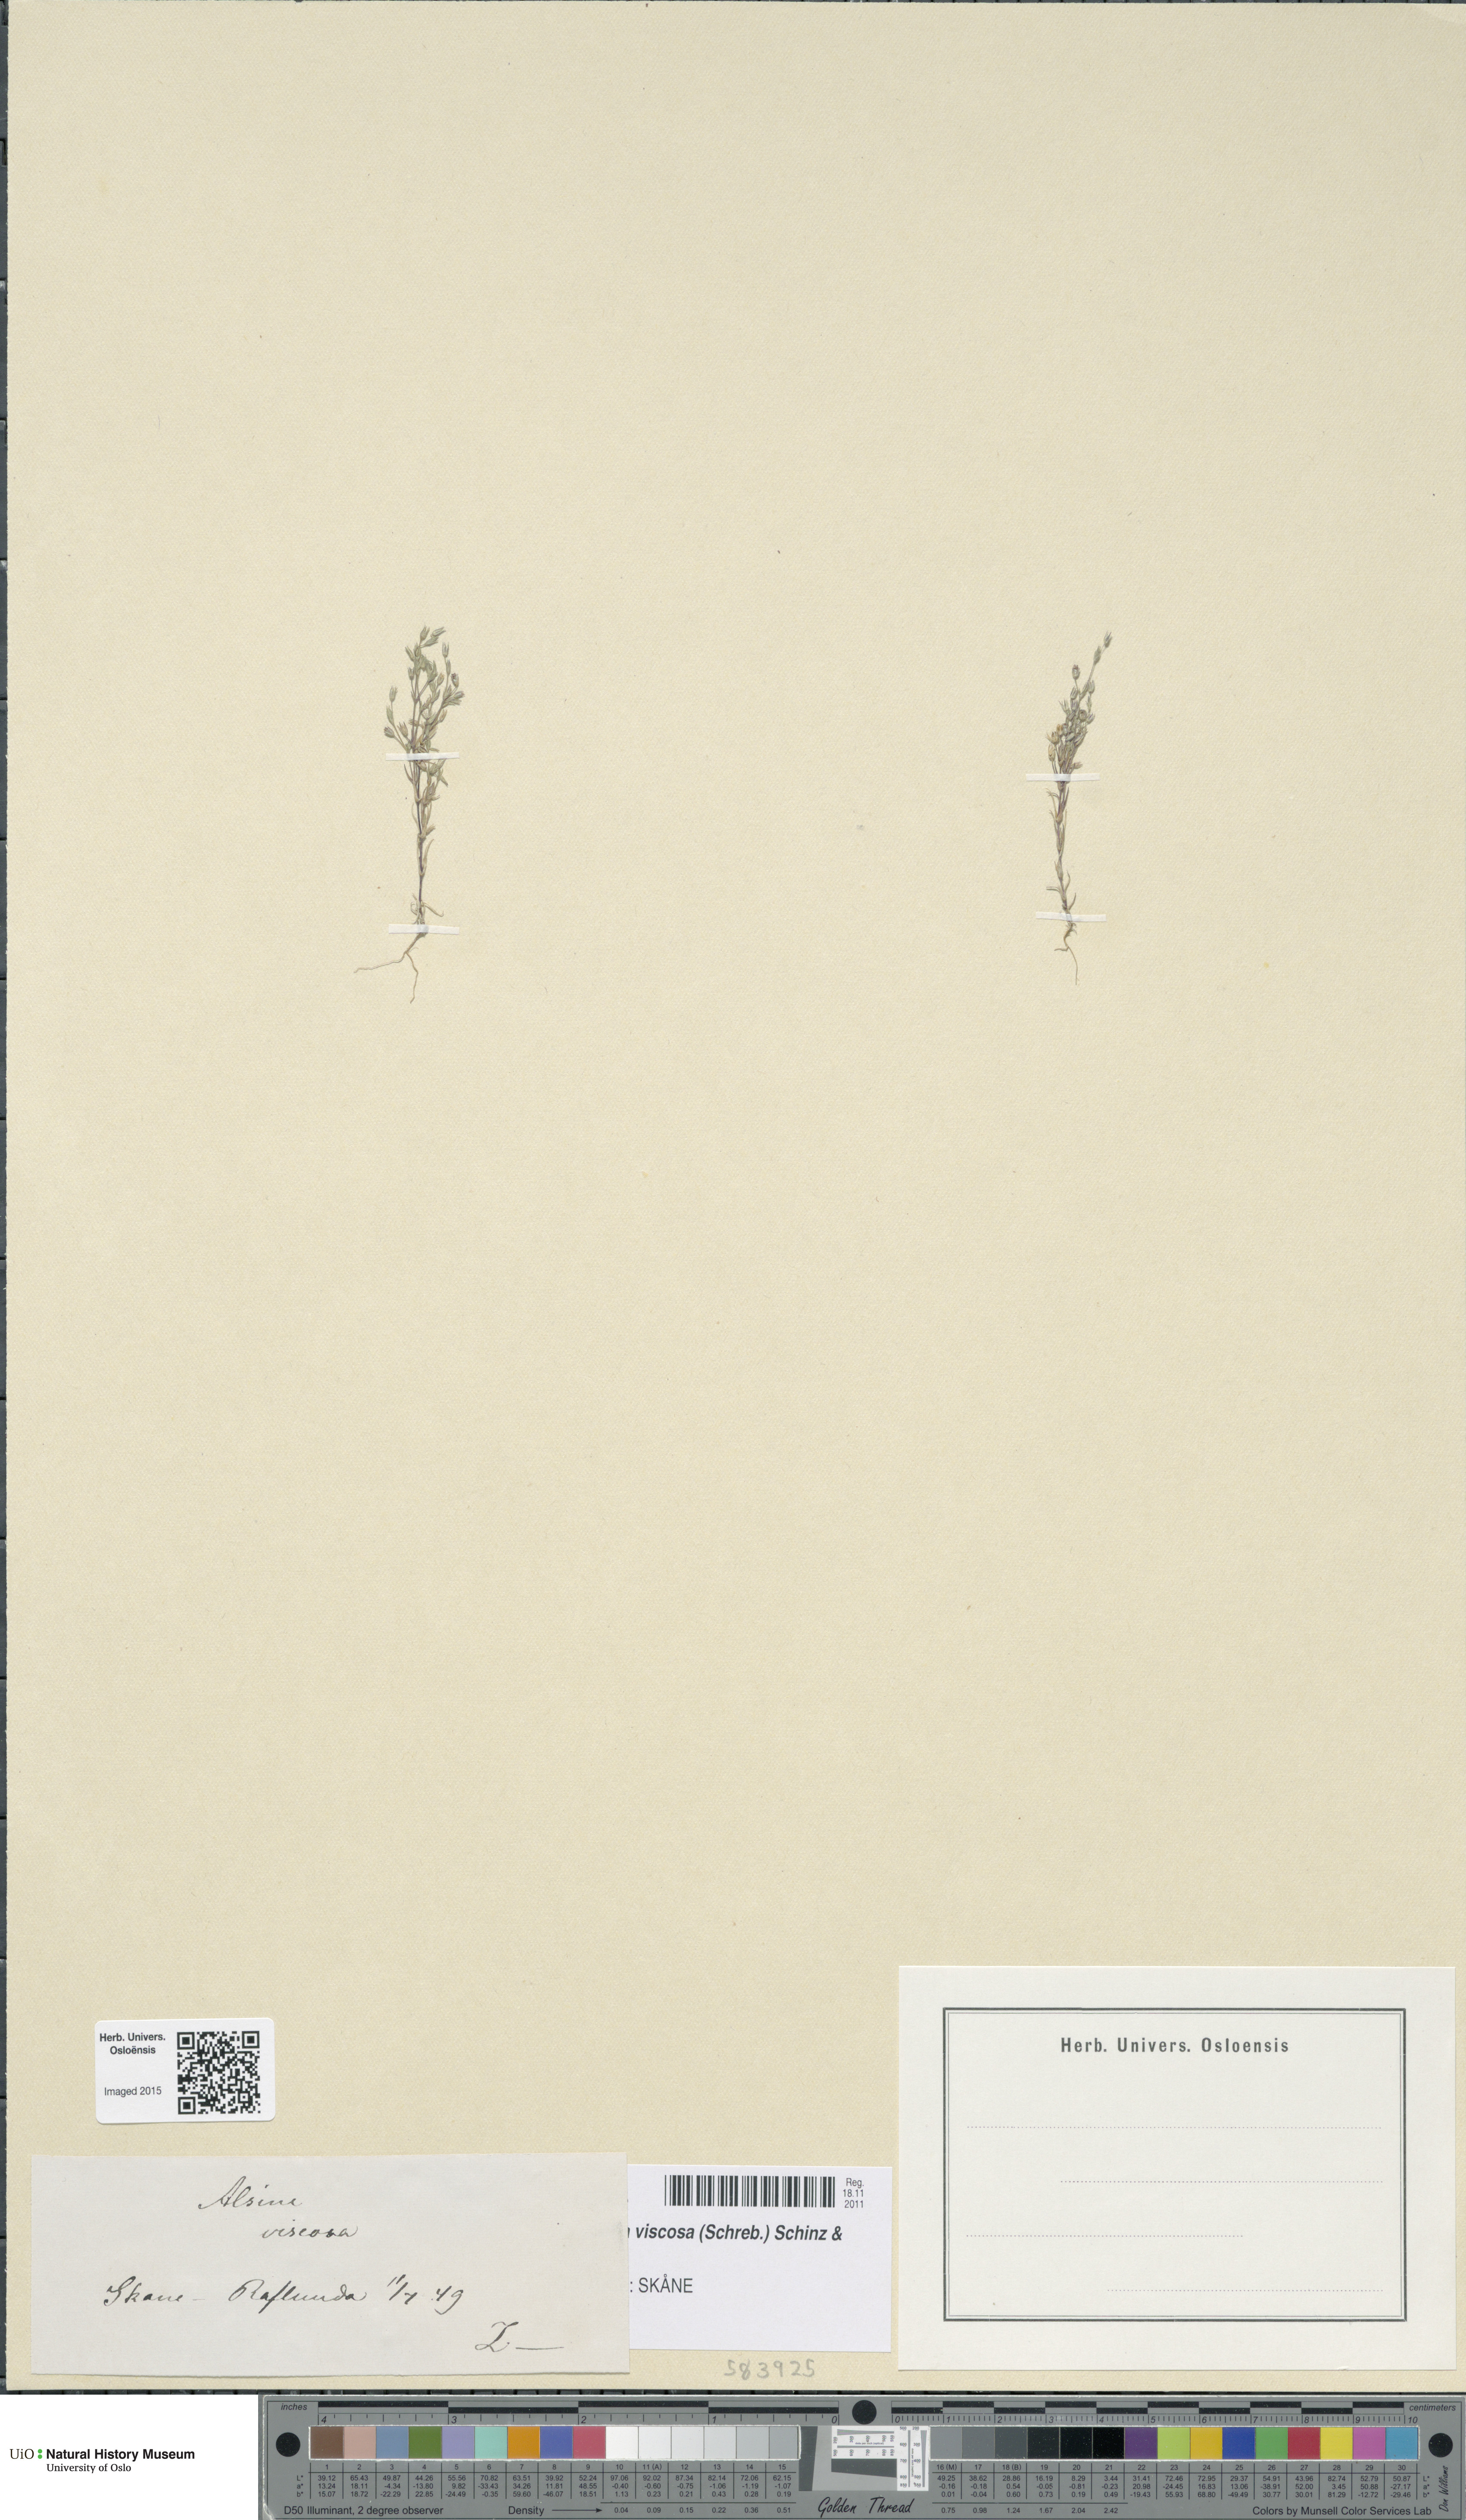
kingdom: Plantae
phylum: Tracheophyta
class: Magnoliopsida
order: Caryophyllales
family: Caryophyllaceae
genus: Sabulina
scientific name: Sabulina viscosa
